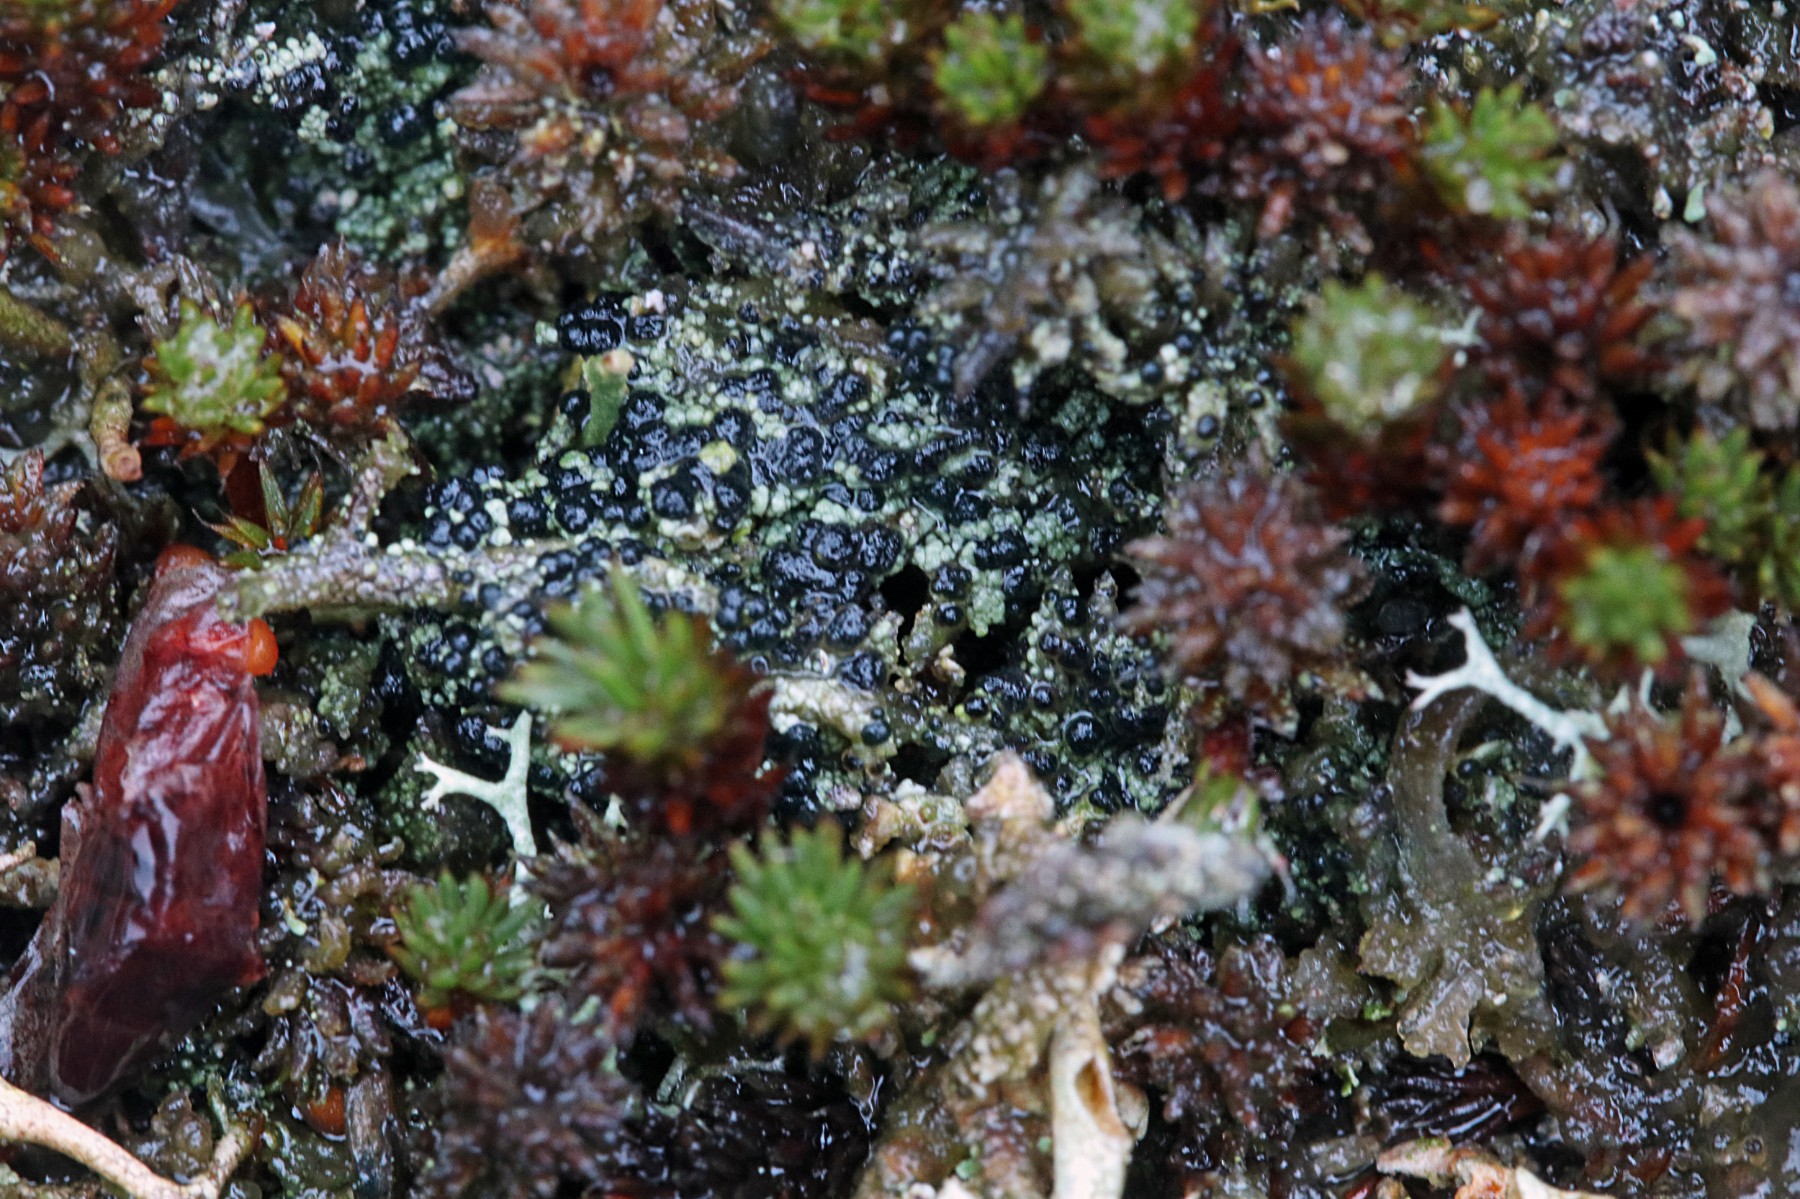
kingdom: Fungi
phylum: Ascomycota
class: Lecanoromycetes
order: Lecanorales
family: Byssolomataceae
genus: Micarea
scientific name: Micarea lignaria
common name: tørve-knaplav
